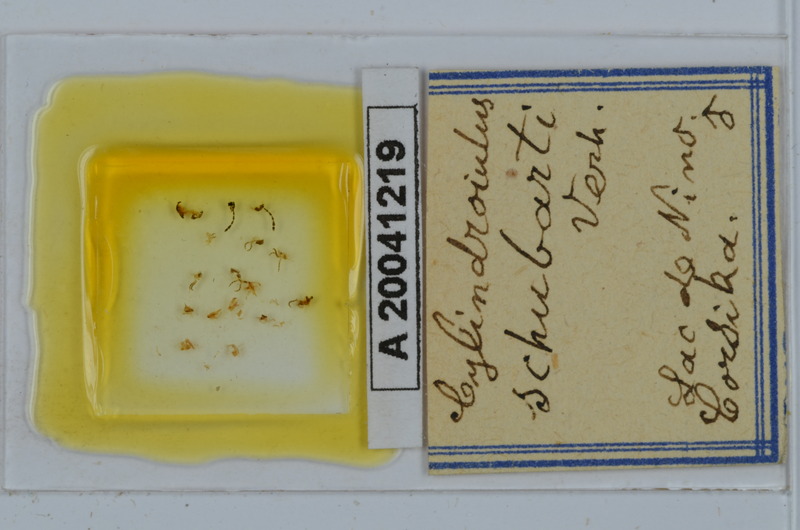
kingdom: Animalia
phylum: Arthropoda
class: Diplopoda
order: Julida
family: Julidae
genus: Cylindroiulus
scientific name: Cylindroiulus schubarti
